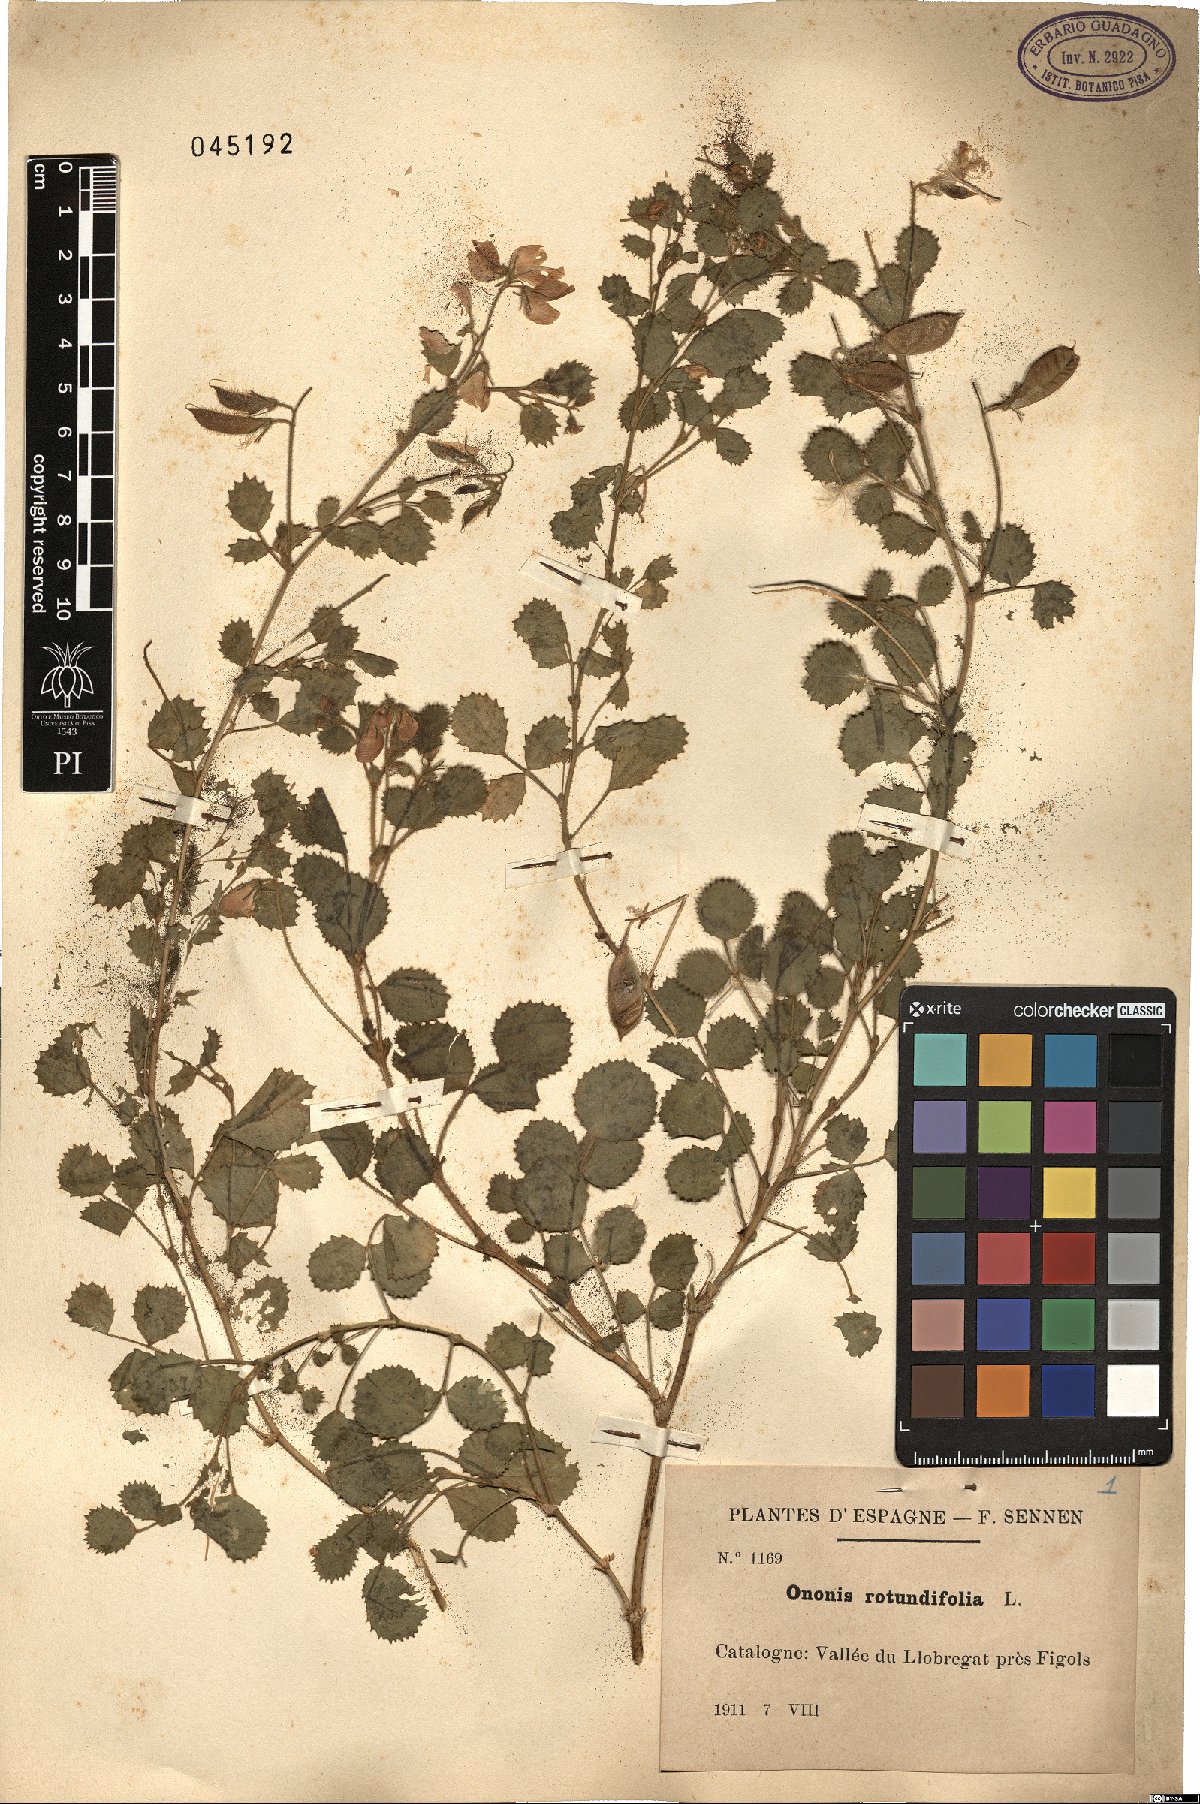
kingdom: Plantae
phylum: Tracheophyta
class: Magnoliopsida
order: Fabales
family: Fabaceae
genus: Ononis
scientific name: Ononis rotundifolia
